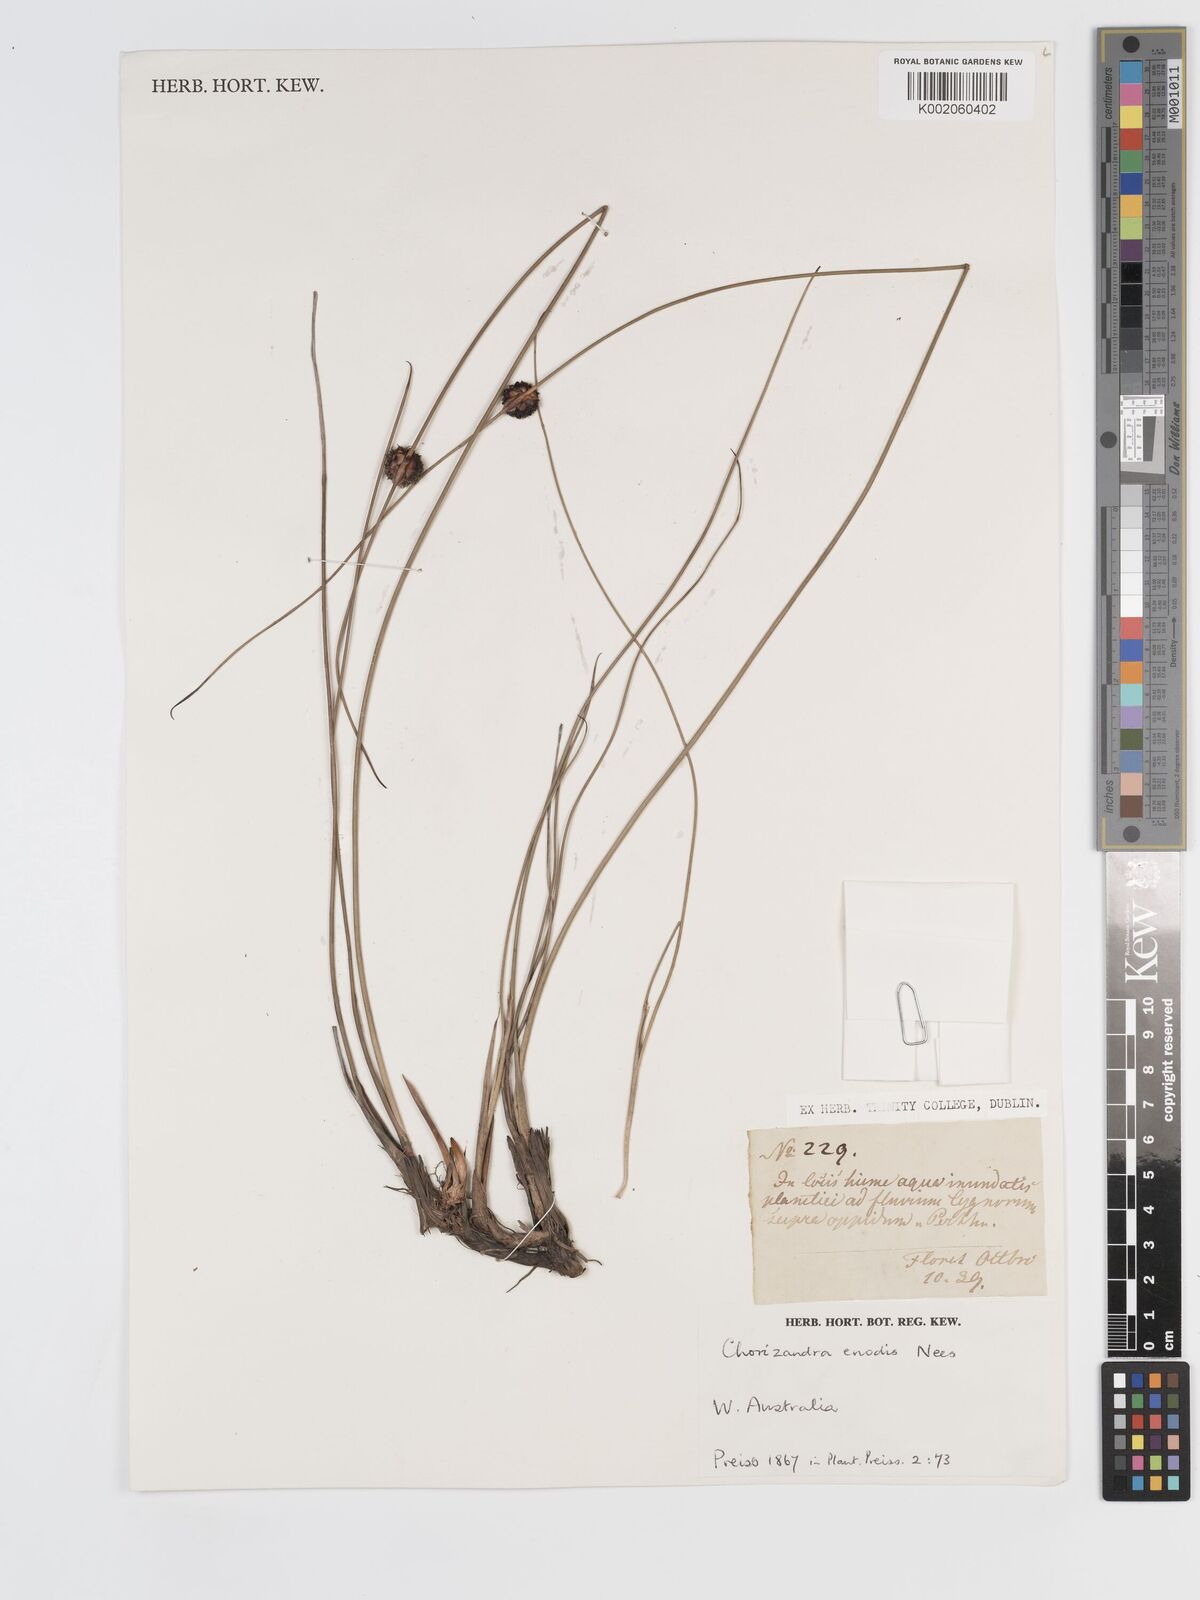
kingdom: Plantae
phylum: Tracheophyta
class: Liliopsida
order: Poales
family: Cyperaceae
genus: Chorizandra
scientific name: Chorizandra enodis
